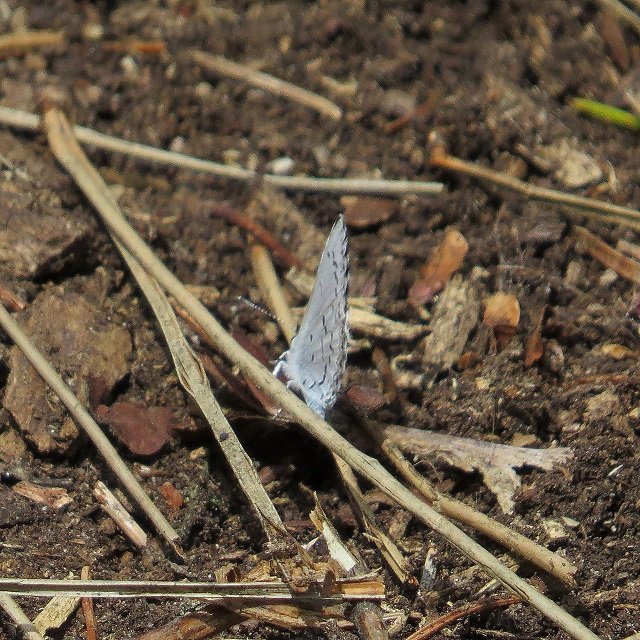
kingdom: Animalia
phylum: Arthropoda
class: Insecta
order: Lepidoptera
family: Lycaenidae
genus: Celastrina
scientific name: Celastrina
